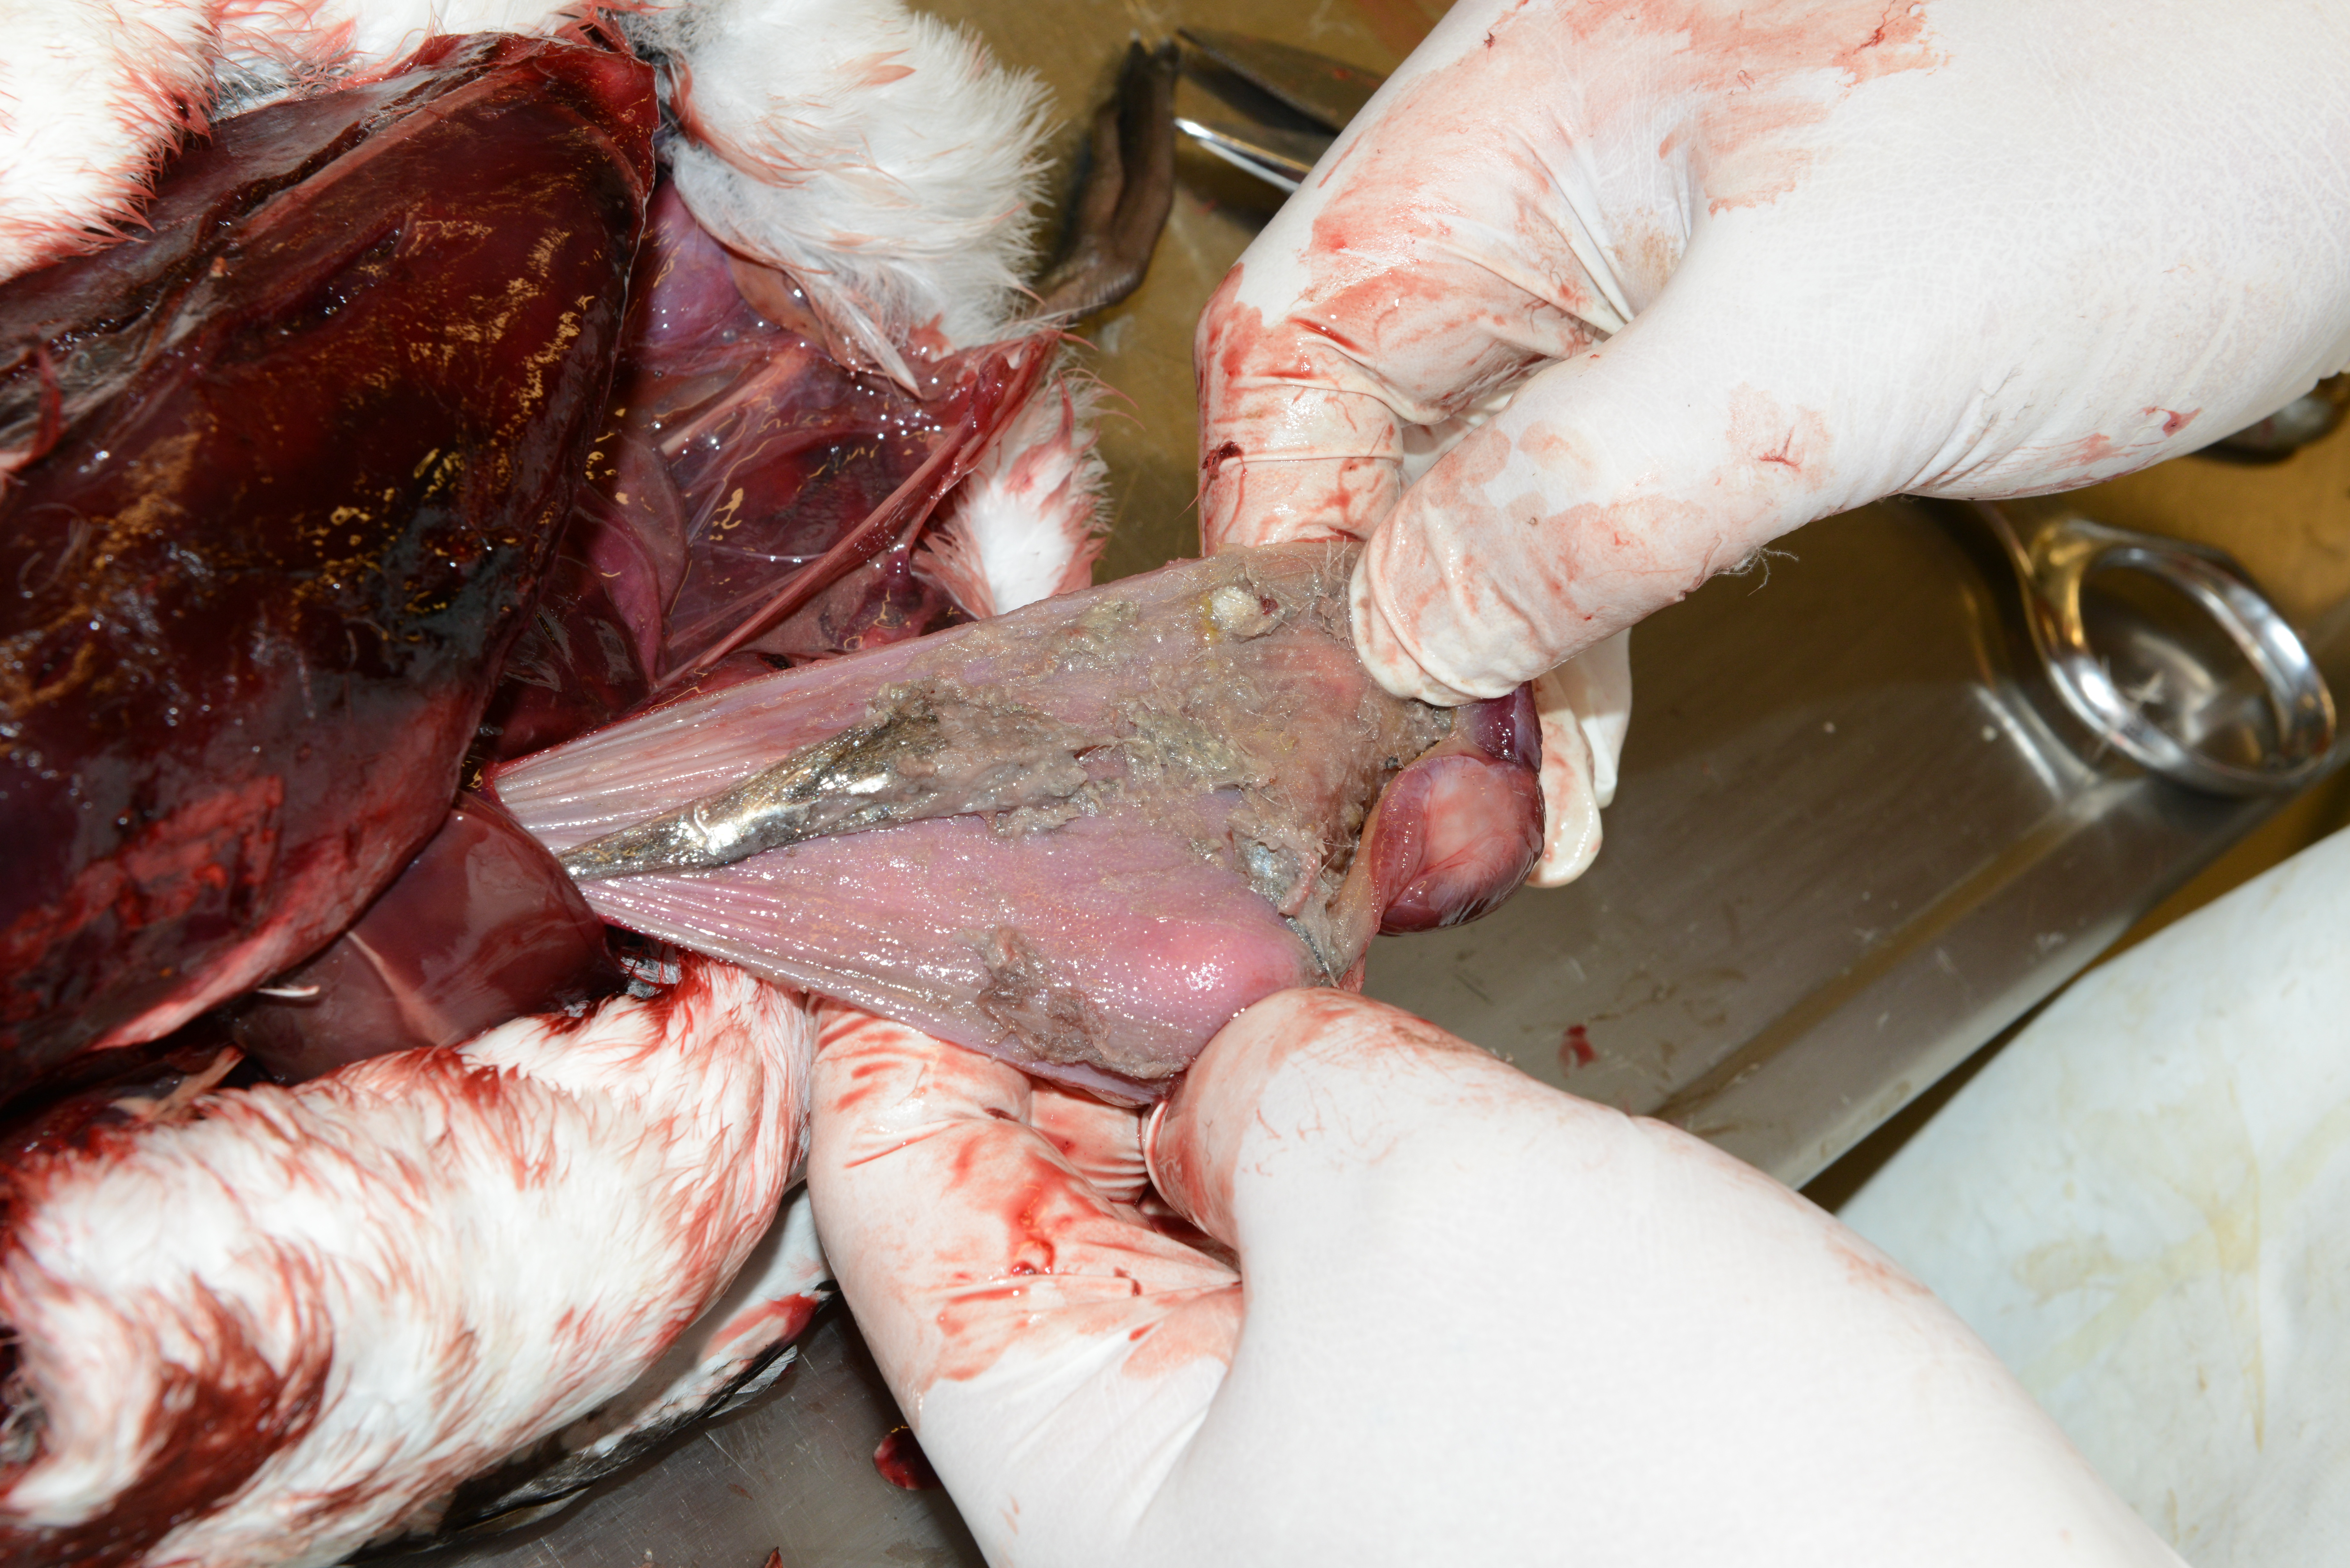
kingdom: Animalia
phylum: Chordata
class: Aves
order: Charadriiformes
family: Alcidae
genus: Uria
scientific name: Uria aalge
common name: Common murre
